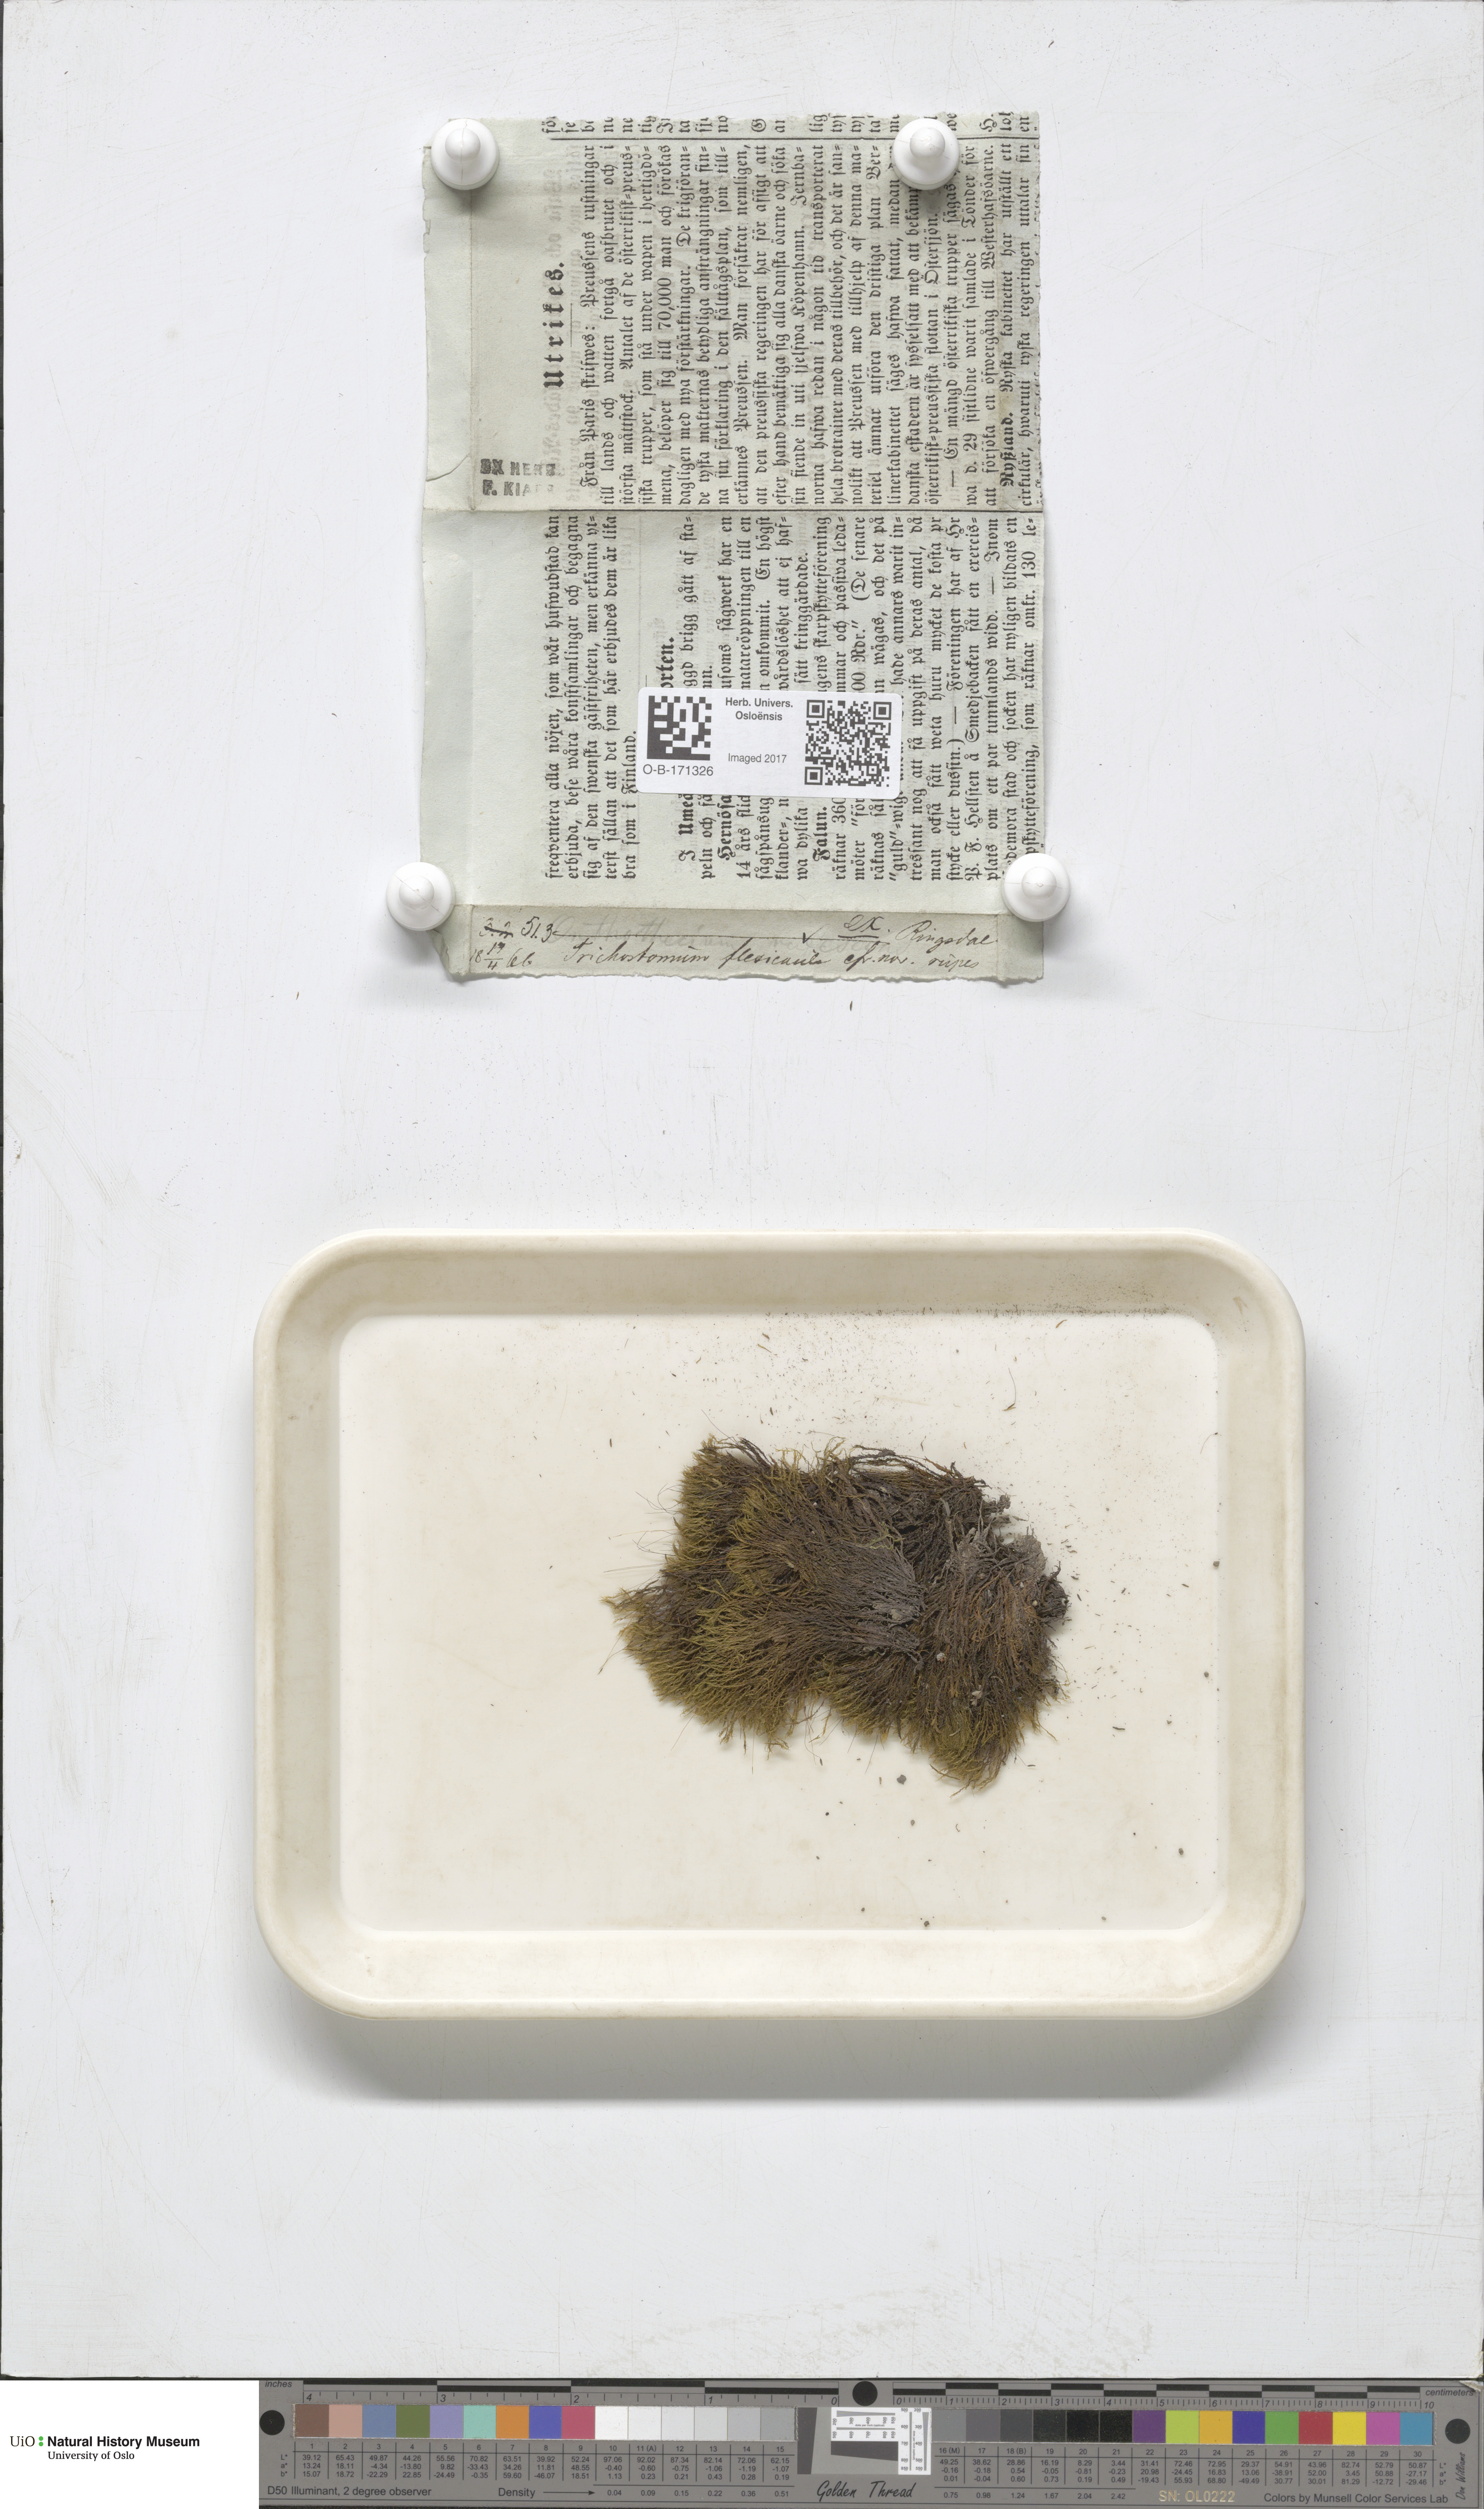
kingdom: Plantae
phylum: Bryophyta
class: Bryopsida
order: Scouleriales
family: Flexitrichaceae
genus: Flexitrichum
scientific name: Flexitrichum flexicaule
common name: Bendy ditrichum
